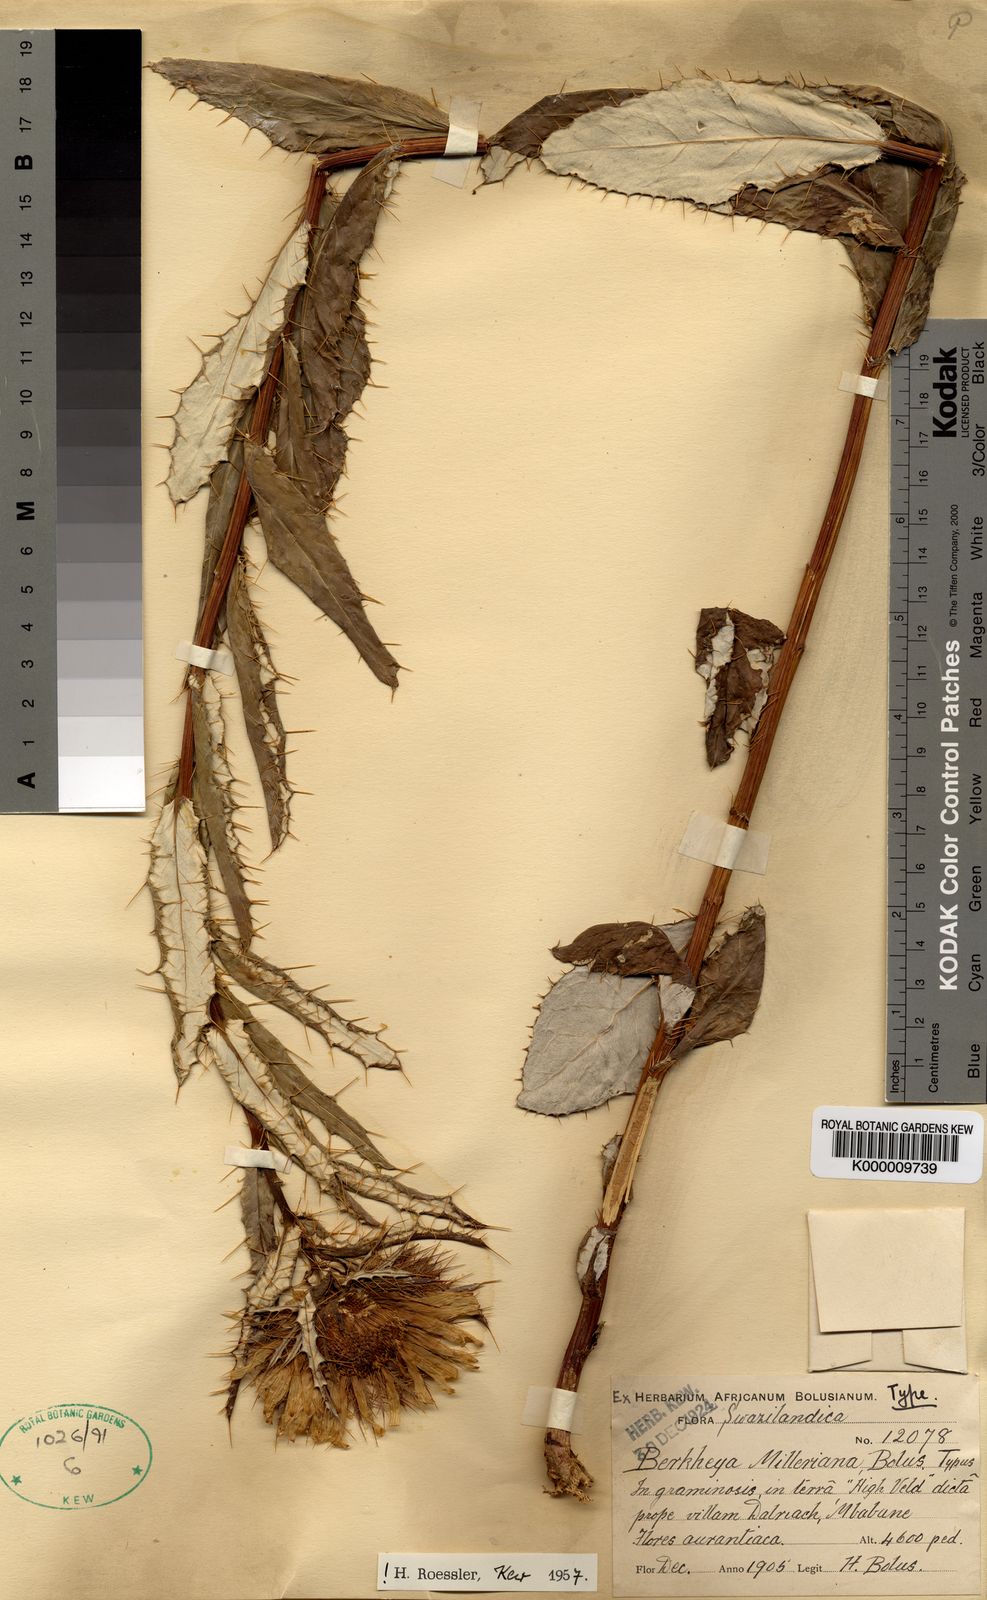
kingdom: Plantae
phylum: Tracheophyta
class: Magnoliopsida
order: Asterales
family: Asteraceae
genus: Berkheya
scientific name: Berkheya milleriana
